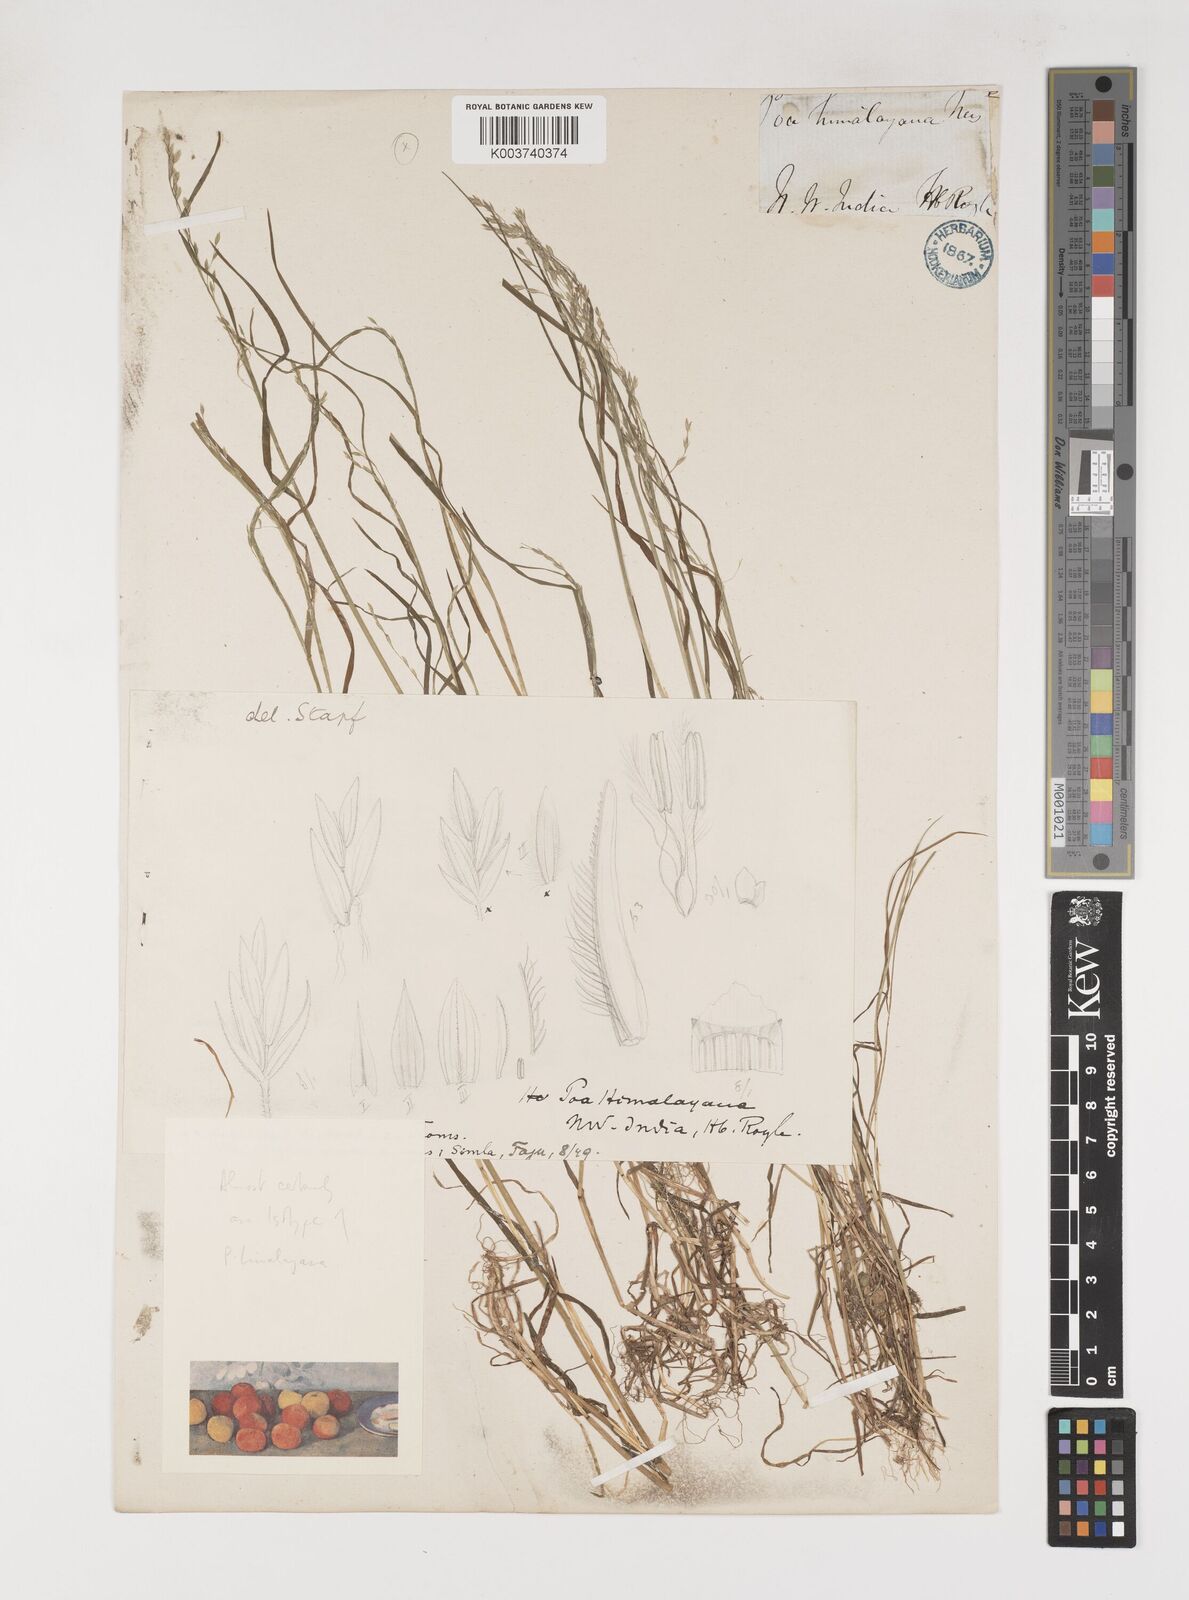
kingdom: Plantae
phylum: Tracheophyta
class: Liliopsida
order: Poales
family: Poaceae
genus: Poa
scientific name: Poa stewartiana
